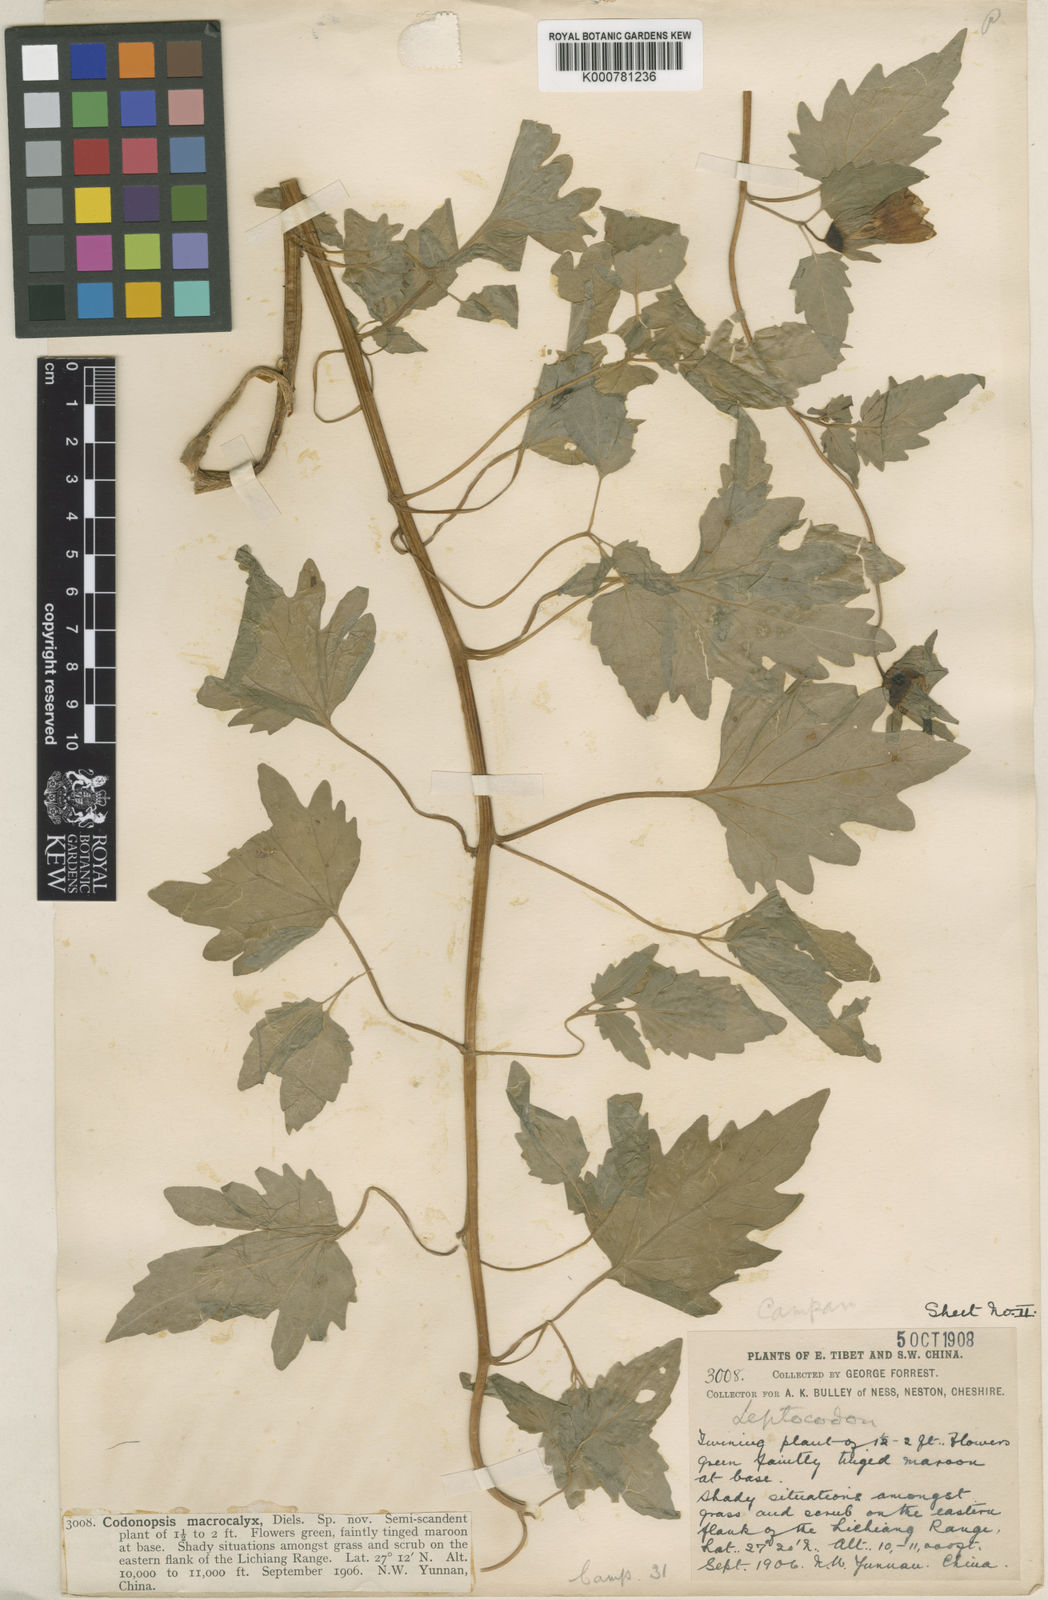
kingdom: Plantae
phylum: Tracheophyta
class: Magnoliopsida
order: Asterales
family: Campanulaceae
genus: Codonopsis
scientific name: Codonopsis benthamii
